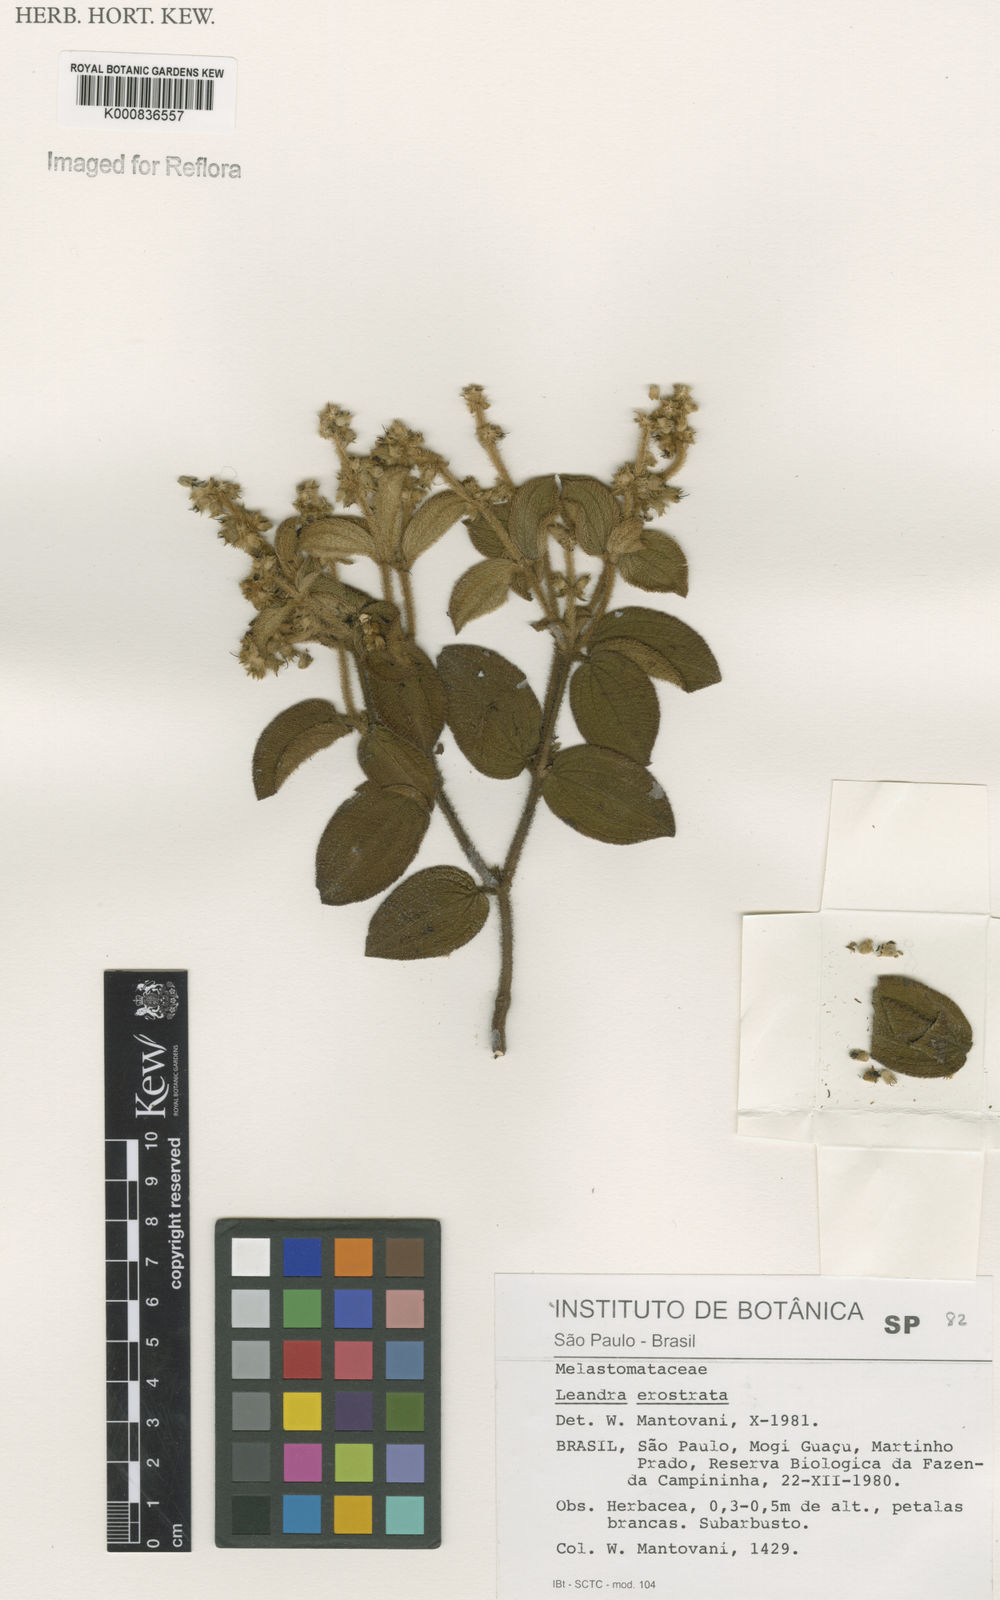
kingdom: Plantae
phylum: Tracheophyta
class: Magnoliopsida
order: Myrtales
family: Melastomataceae
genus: Miconia
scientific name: Miconia erostrata
